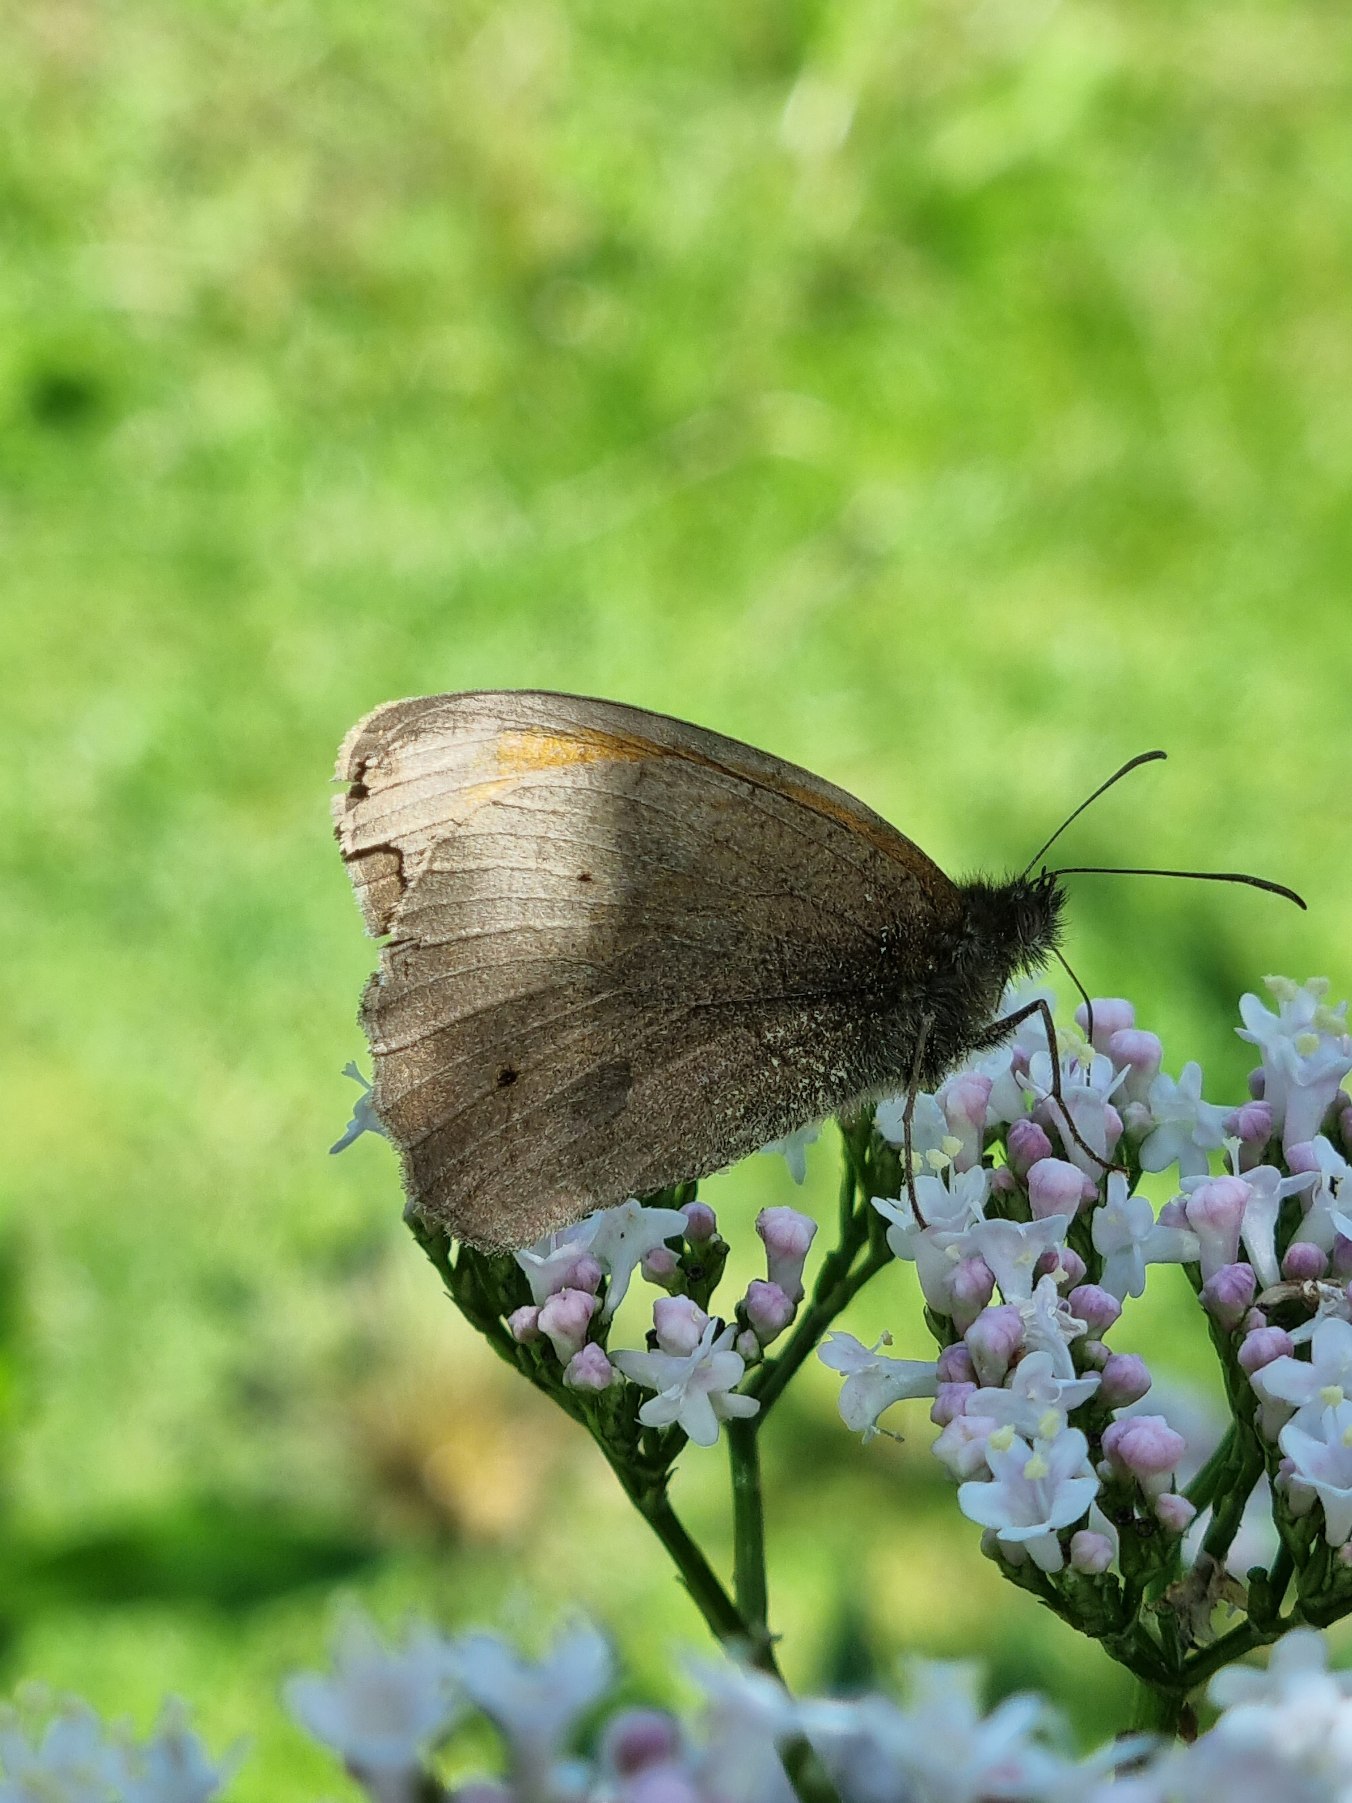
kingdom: Animalia
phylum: Arthropoda
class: Insecta
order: Lepidoptera
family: Nymphalidae
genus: Maniola
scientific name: Maniola jurtina
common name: Græsrandøje
